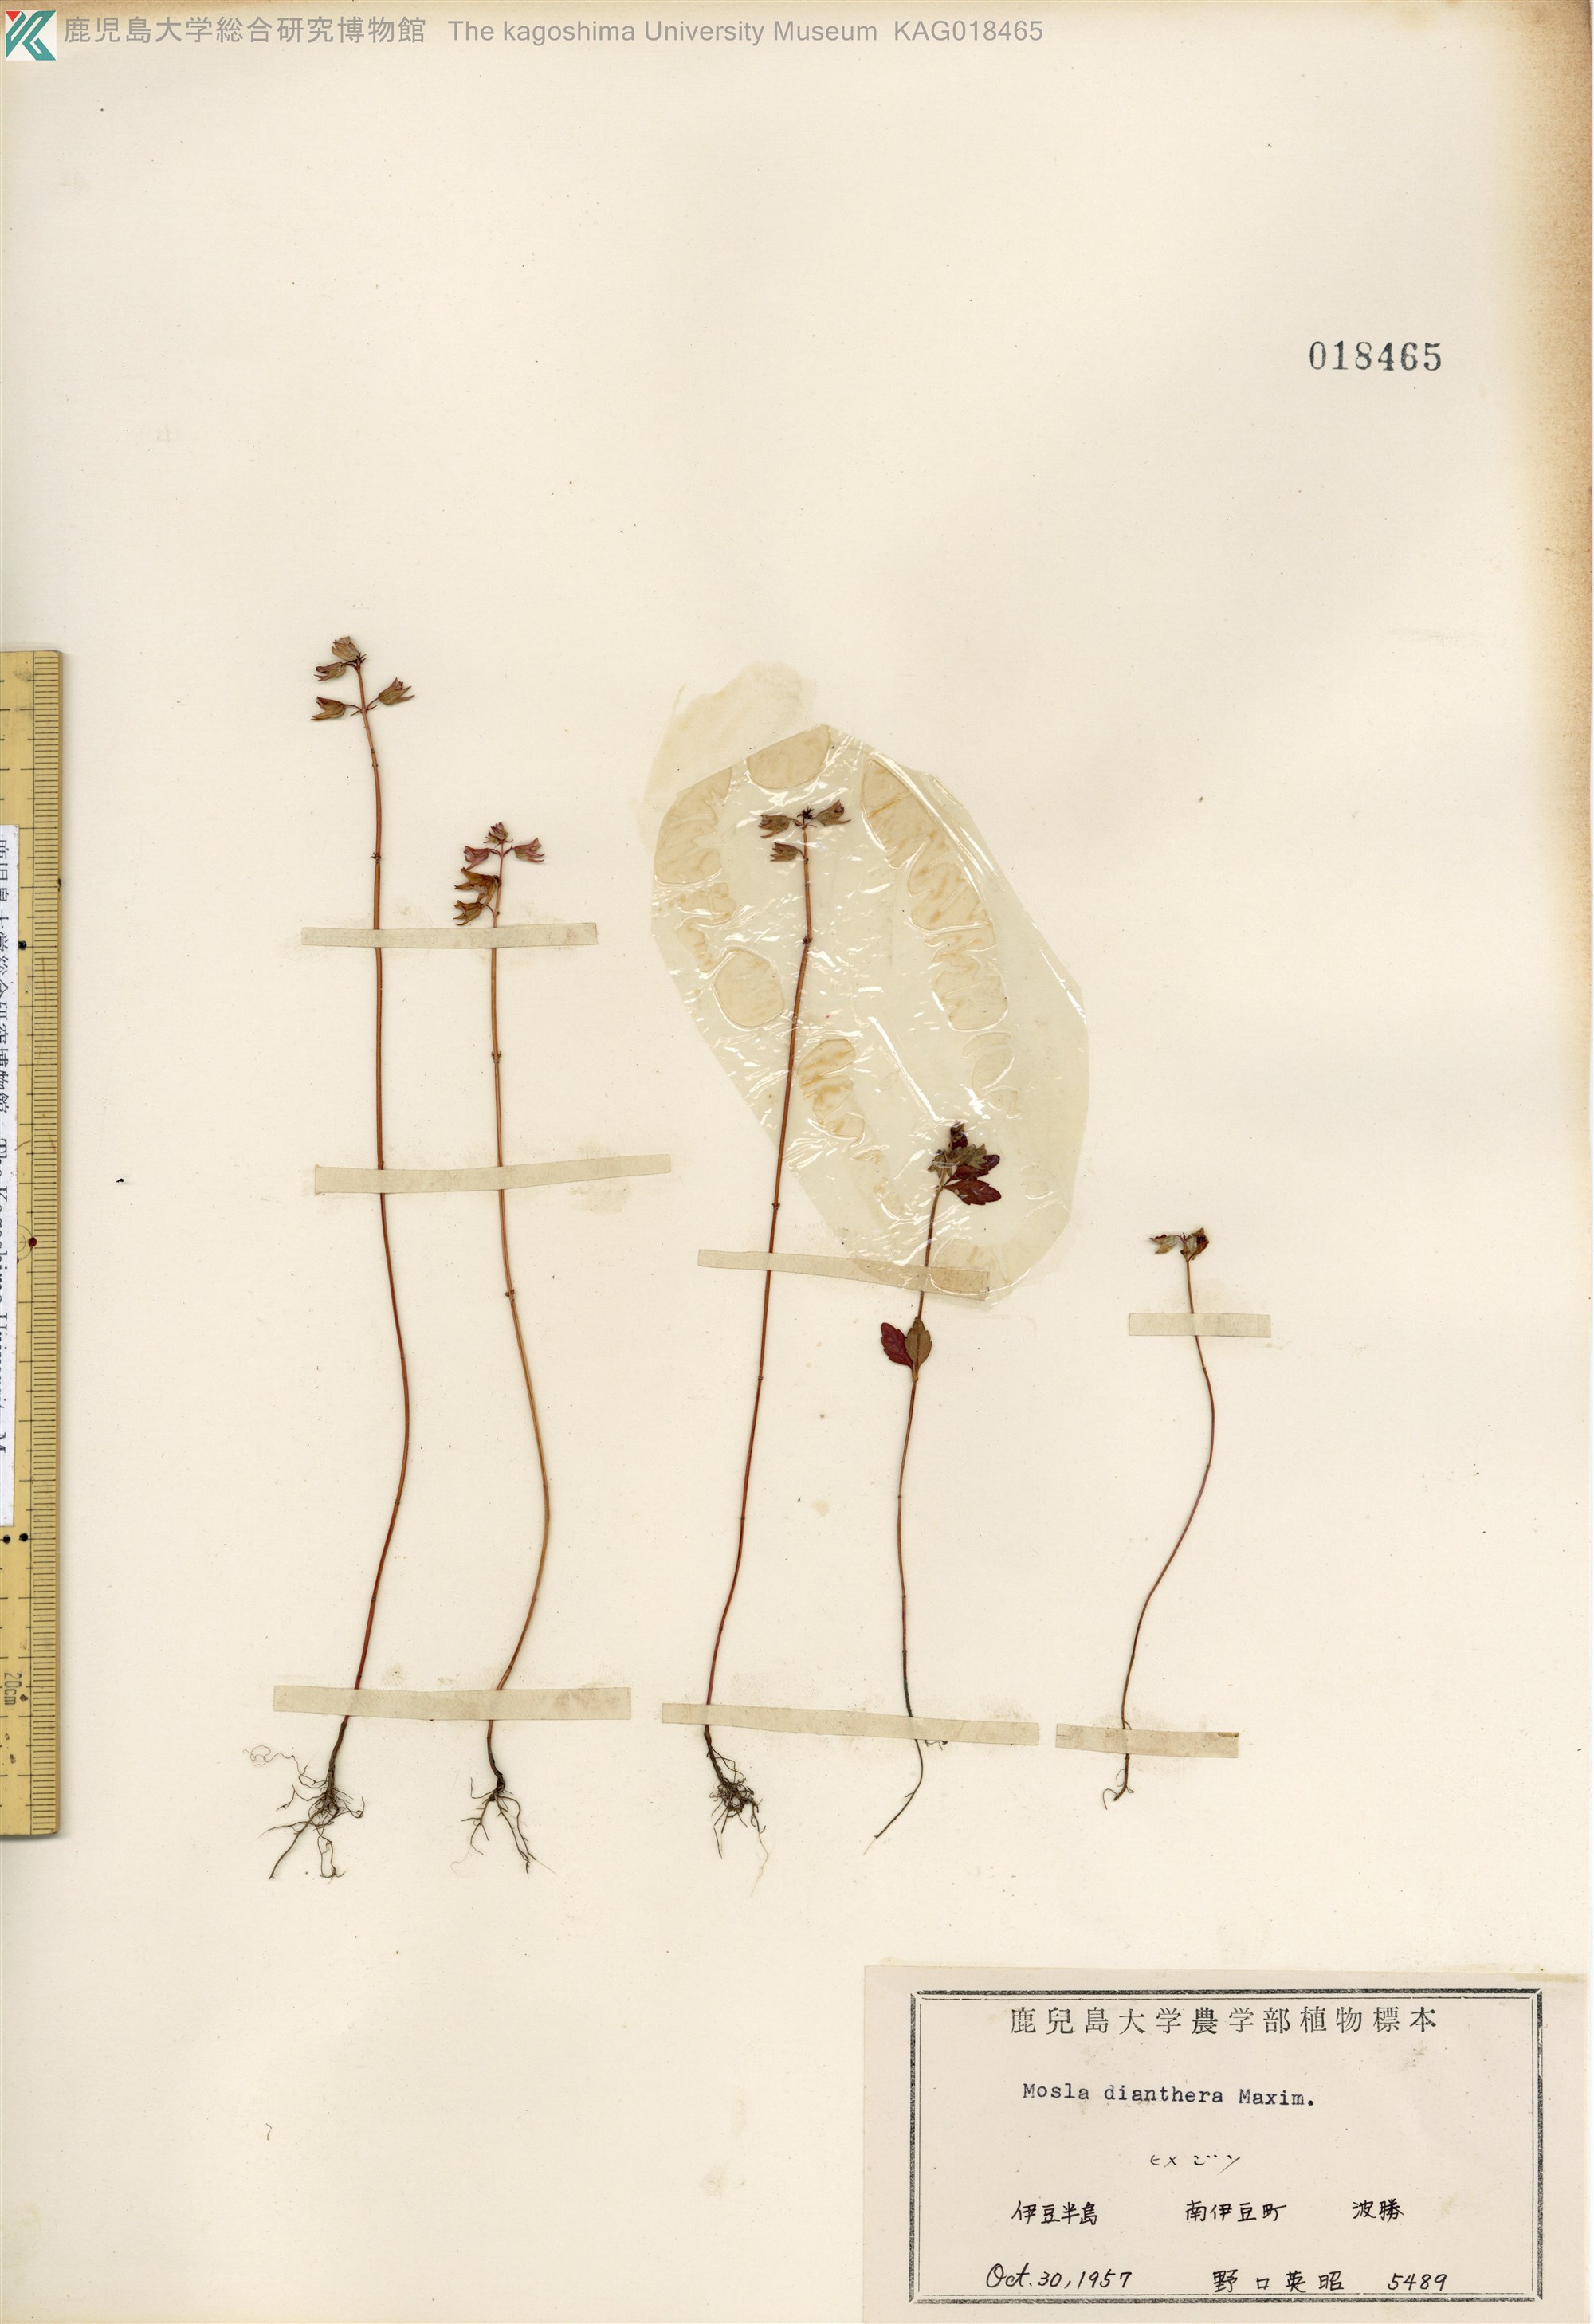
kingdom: Plantae
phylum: Tracheophyta
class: Magnoliopsida
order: Lamiales
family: Lamiaceae
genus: Mosla
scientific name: Mosla dianthera
